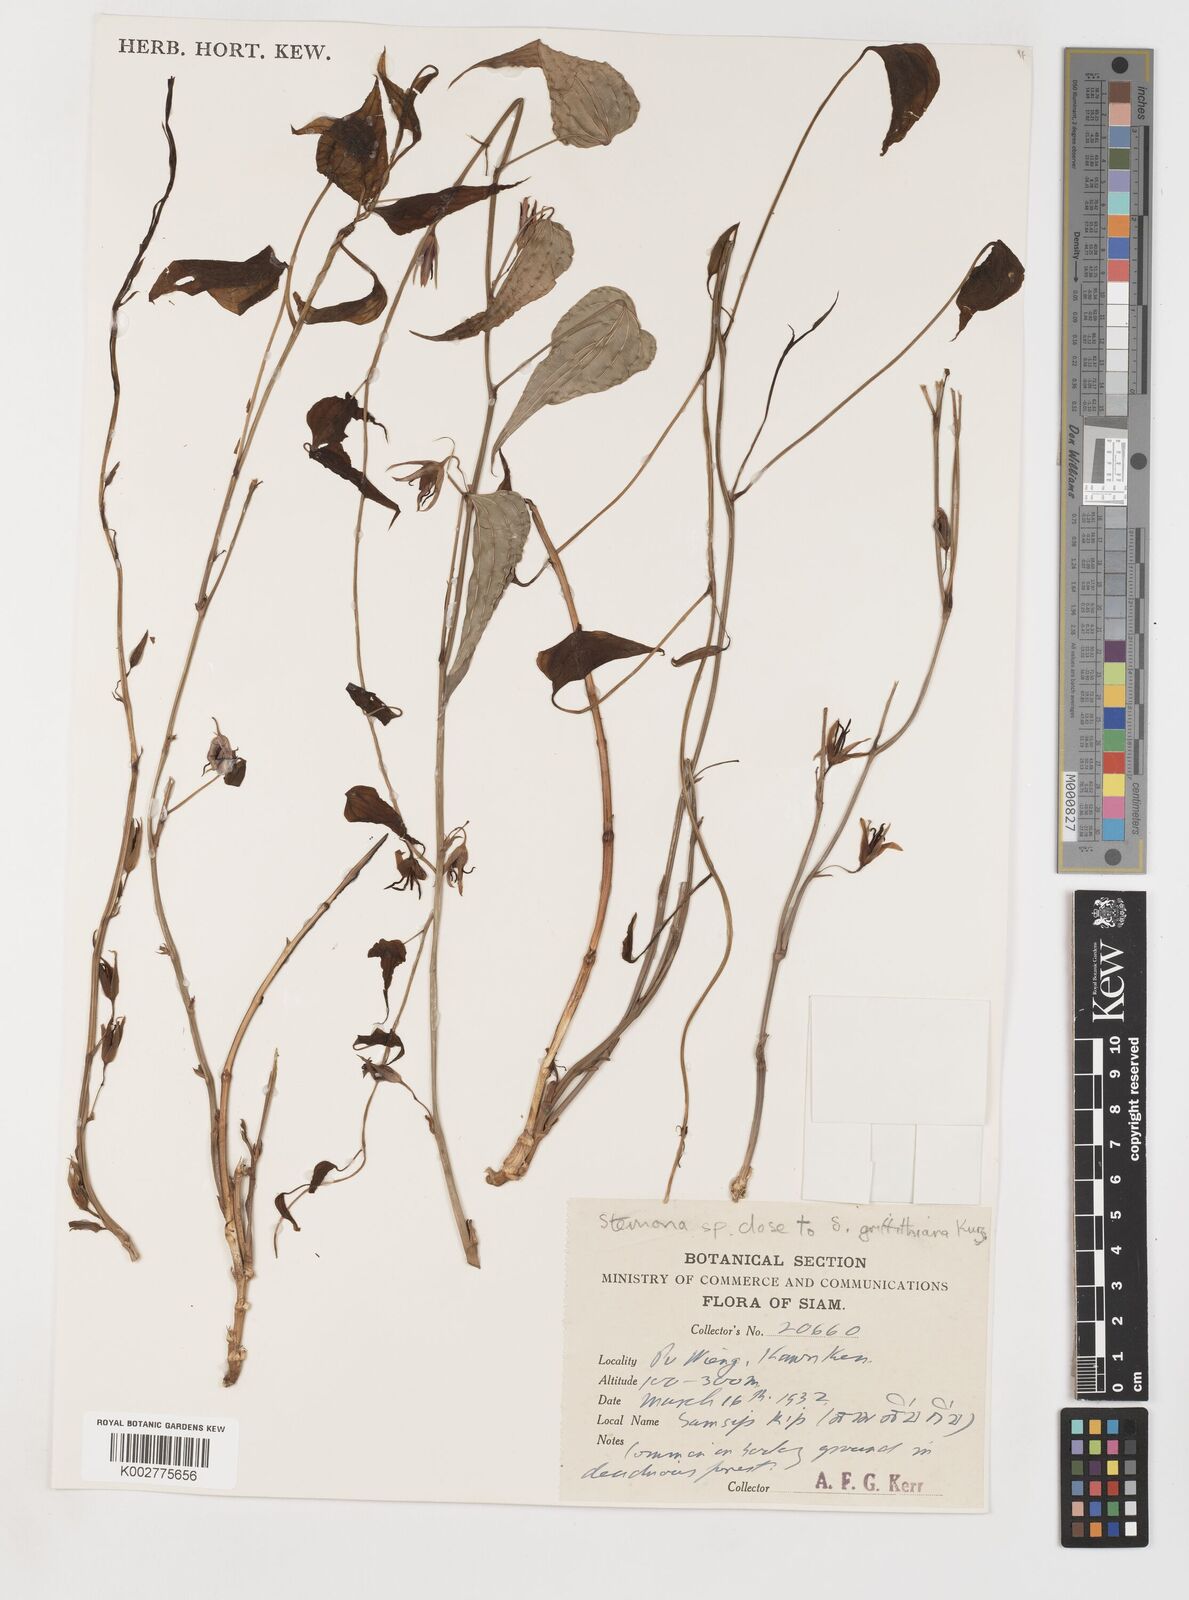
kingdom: Plantae
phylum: Tracheophyta
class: Liliopsida
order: Pandanales
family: Stemonaceae
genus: Stemona
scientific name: Stemona griffithiana
